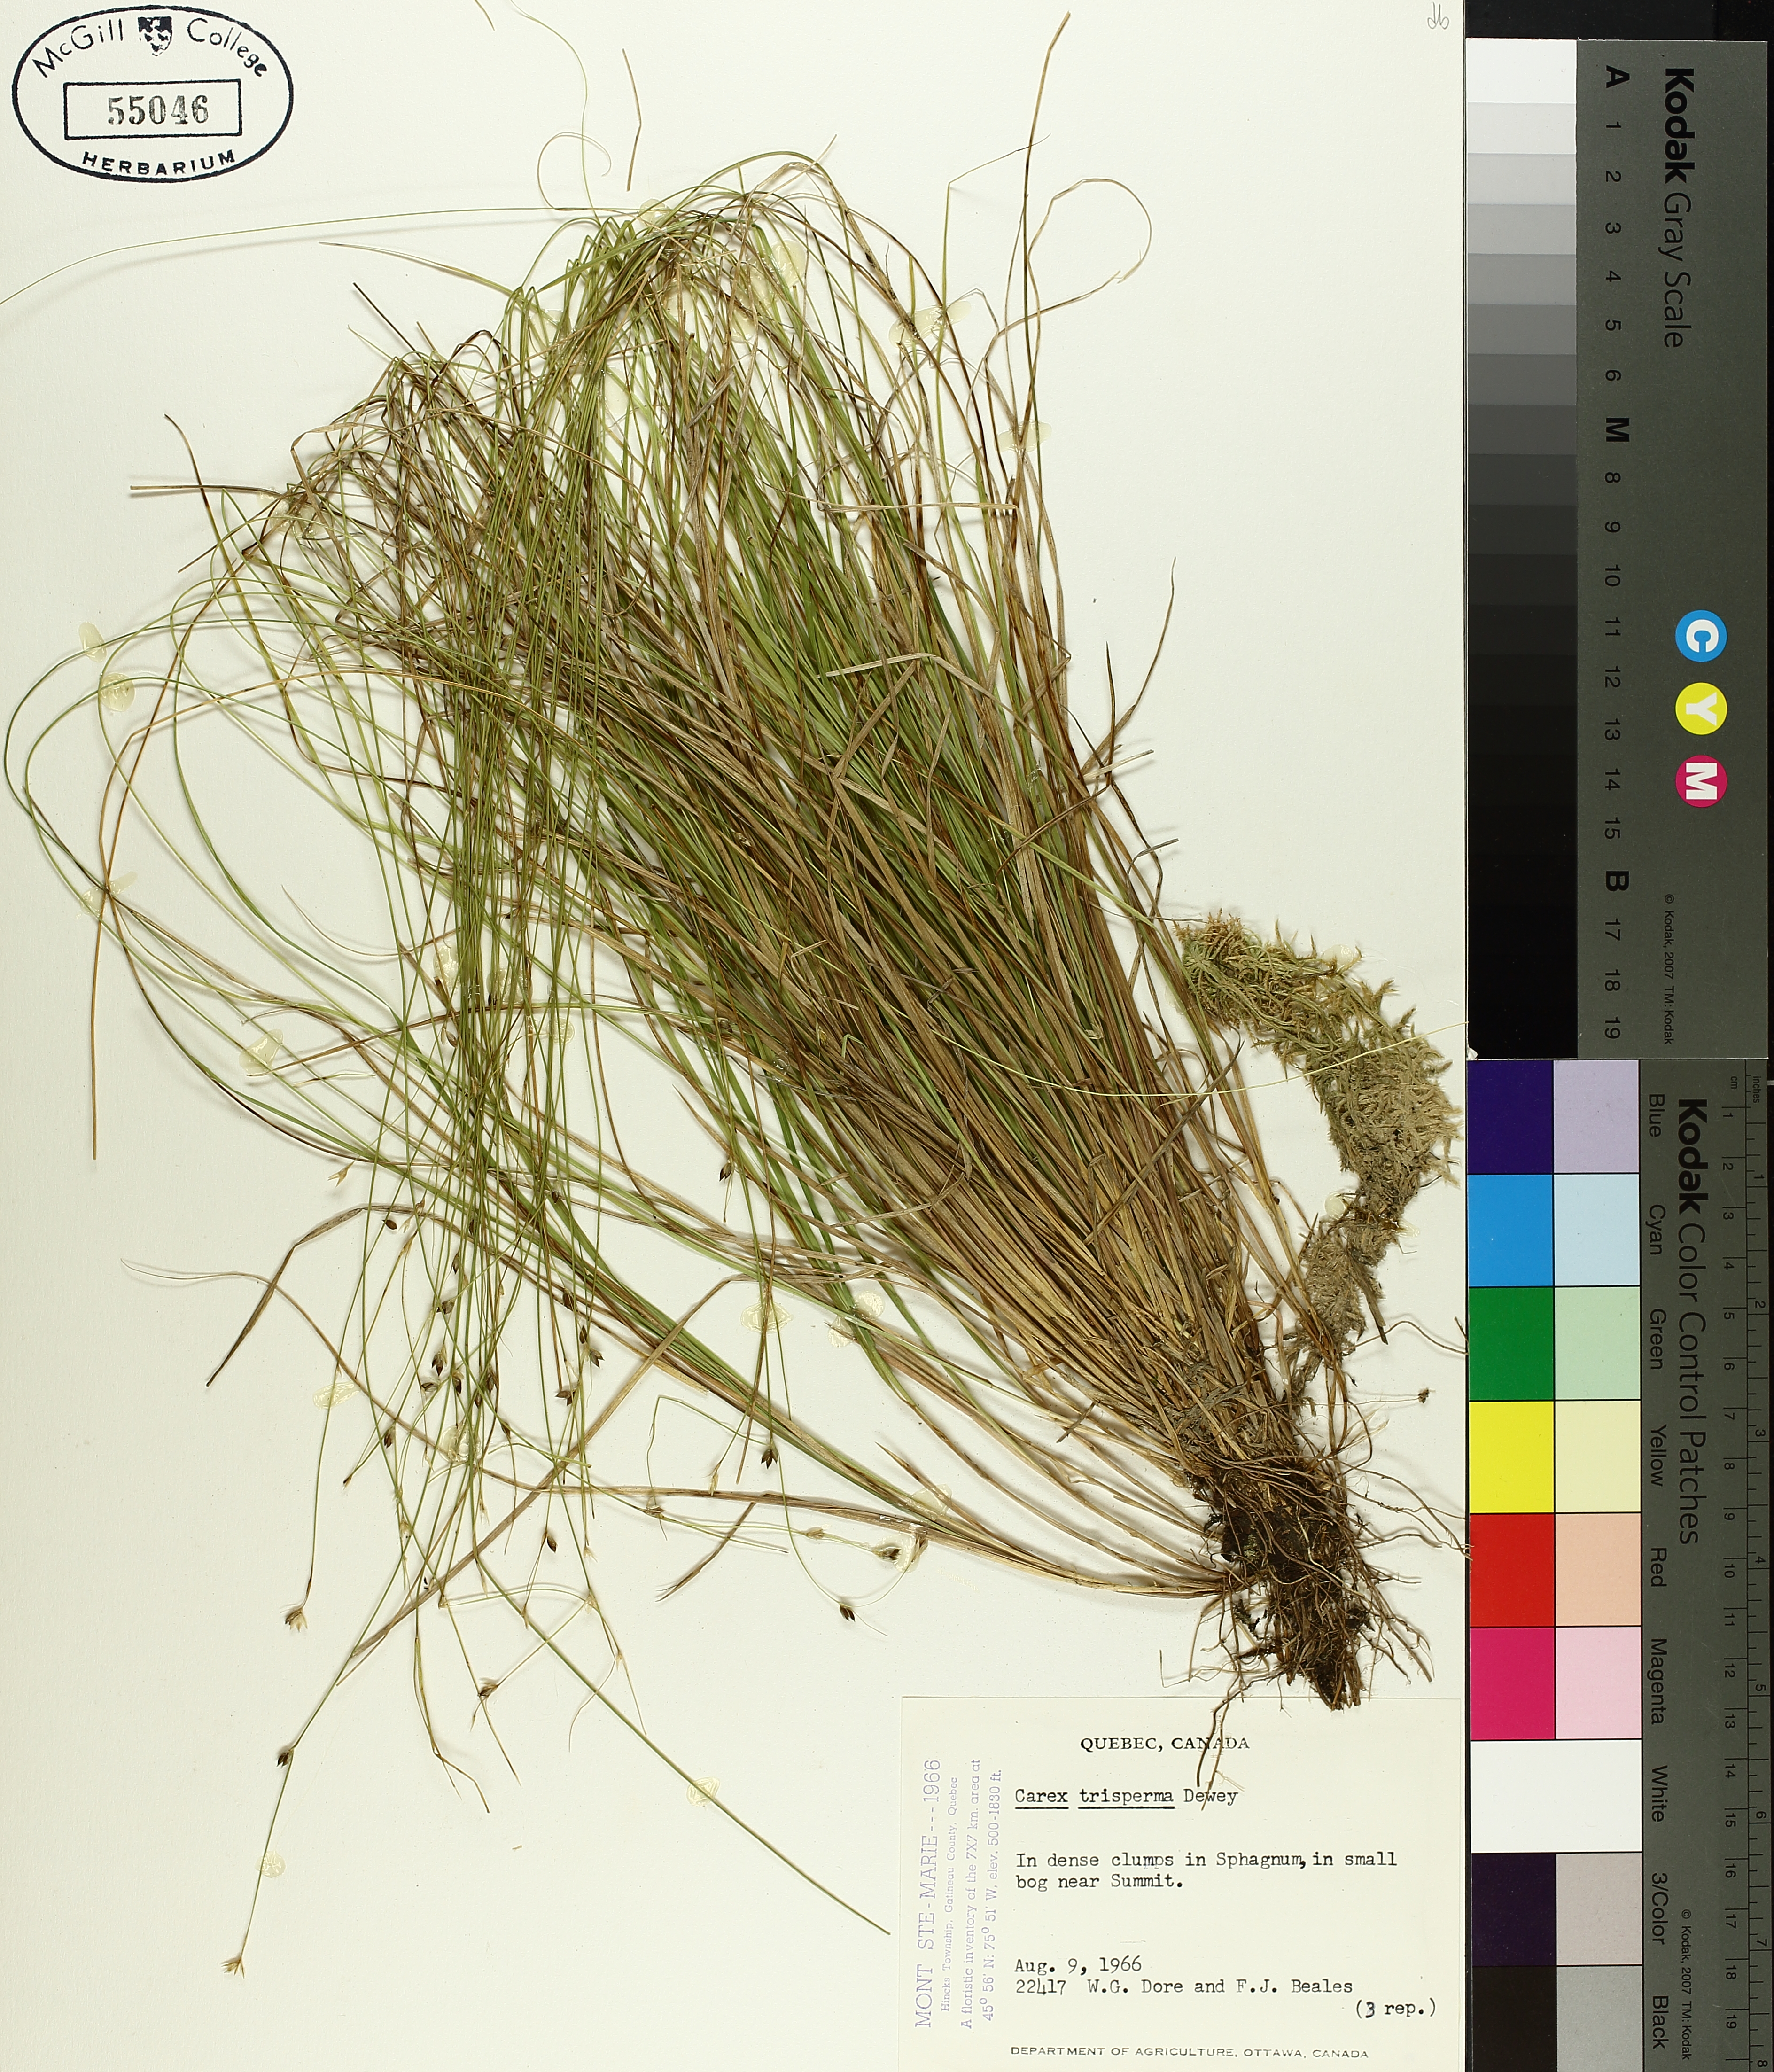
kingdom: Plantae
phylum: Tracheophyta
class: Liliopsida
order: Poales
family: Cyperaceae
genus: Carex
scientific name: Carex trisperma
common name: Three-seeded sedge
